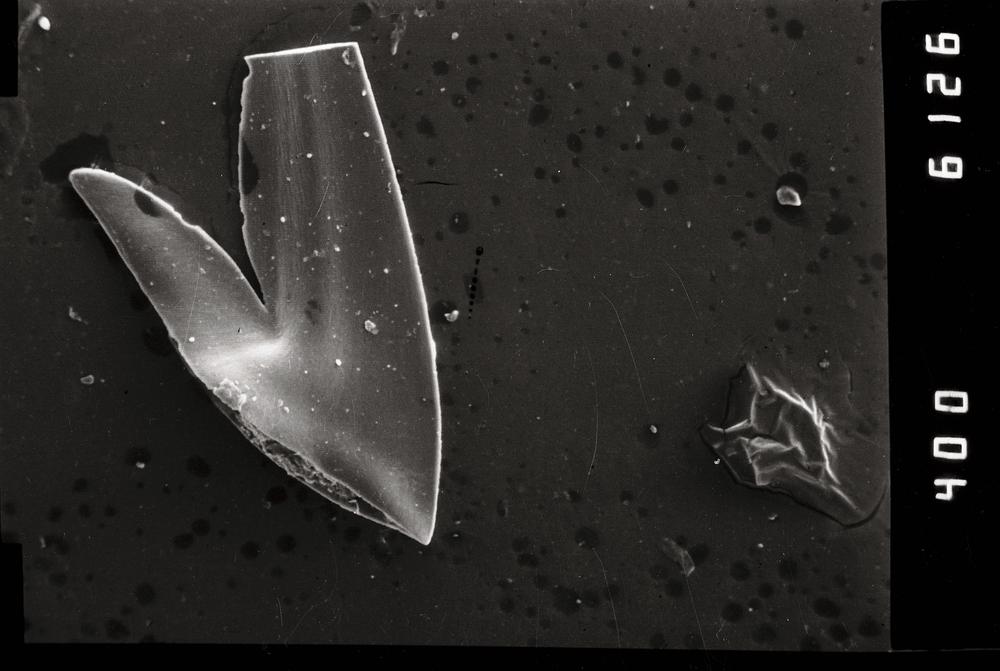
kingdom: Animalia
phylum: Annelida
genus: Paltodus
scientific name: Paltodus Drepanodus deltifer
